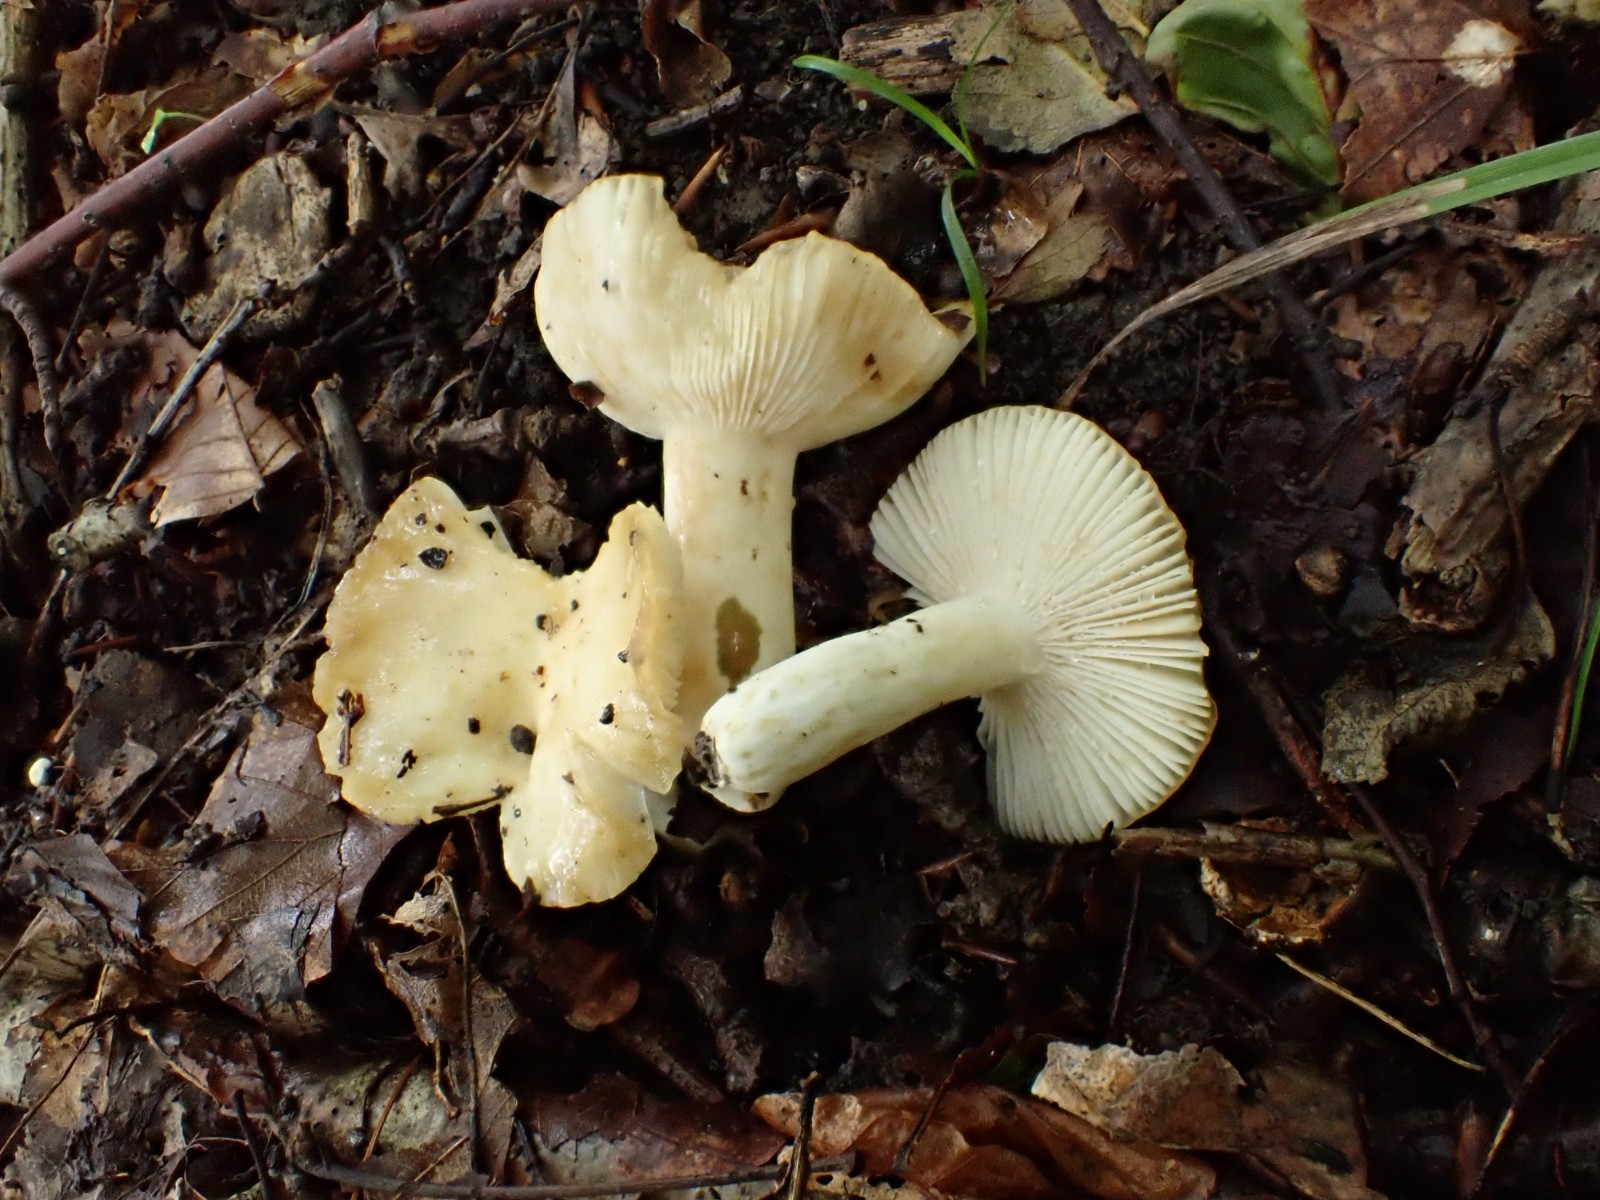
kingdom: Fungi
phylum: Basidiomycota
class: Agaricomycetes
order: Russulales
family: Russulaceae
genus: Russula
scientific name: Russula farinipes
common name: gul kam-skørhat
